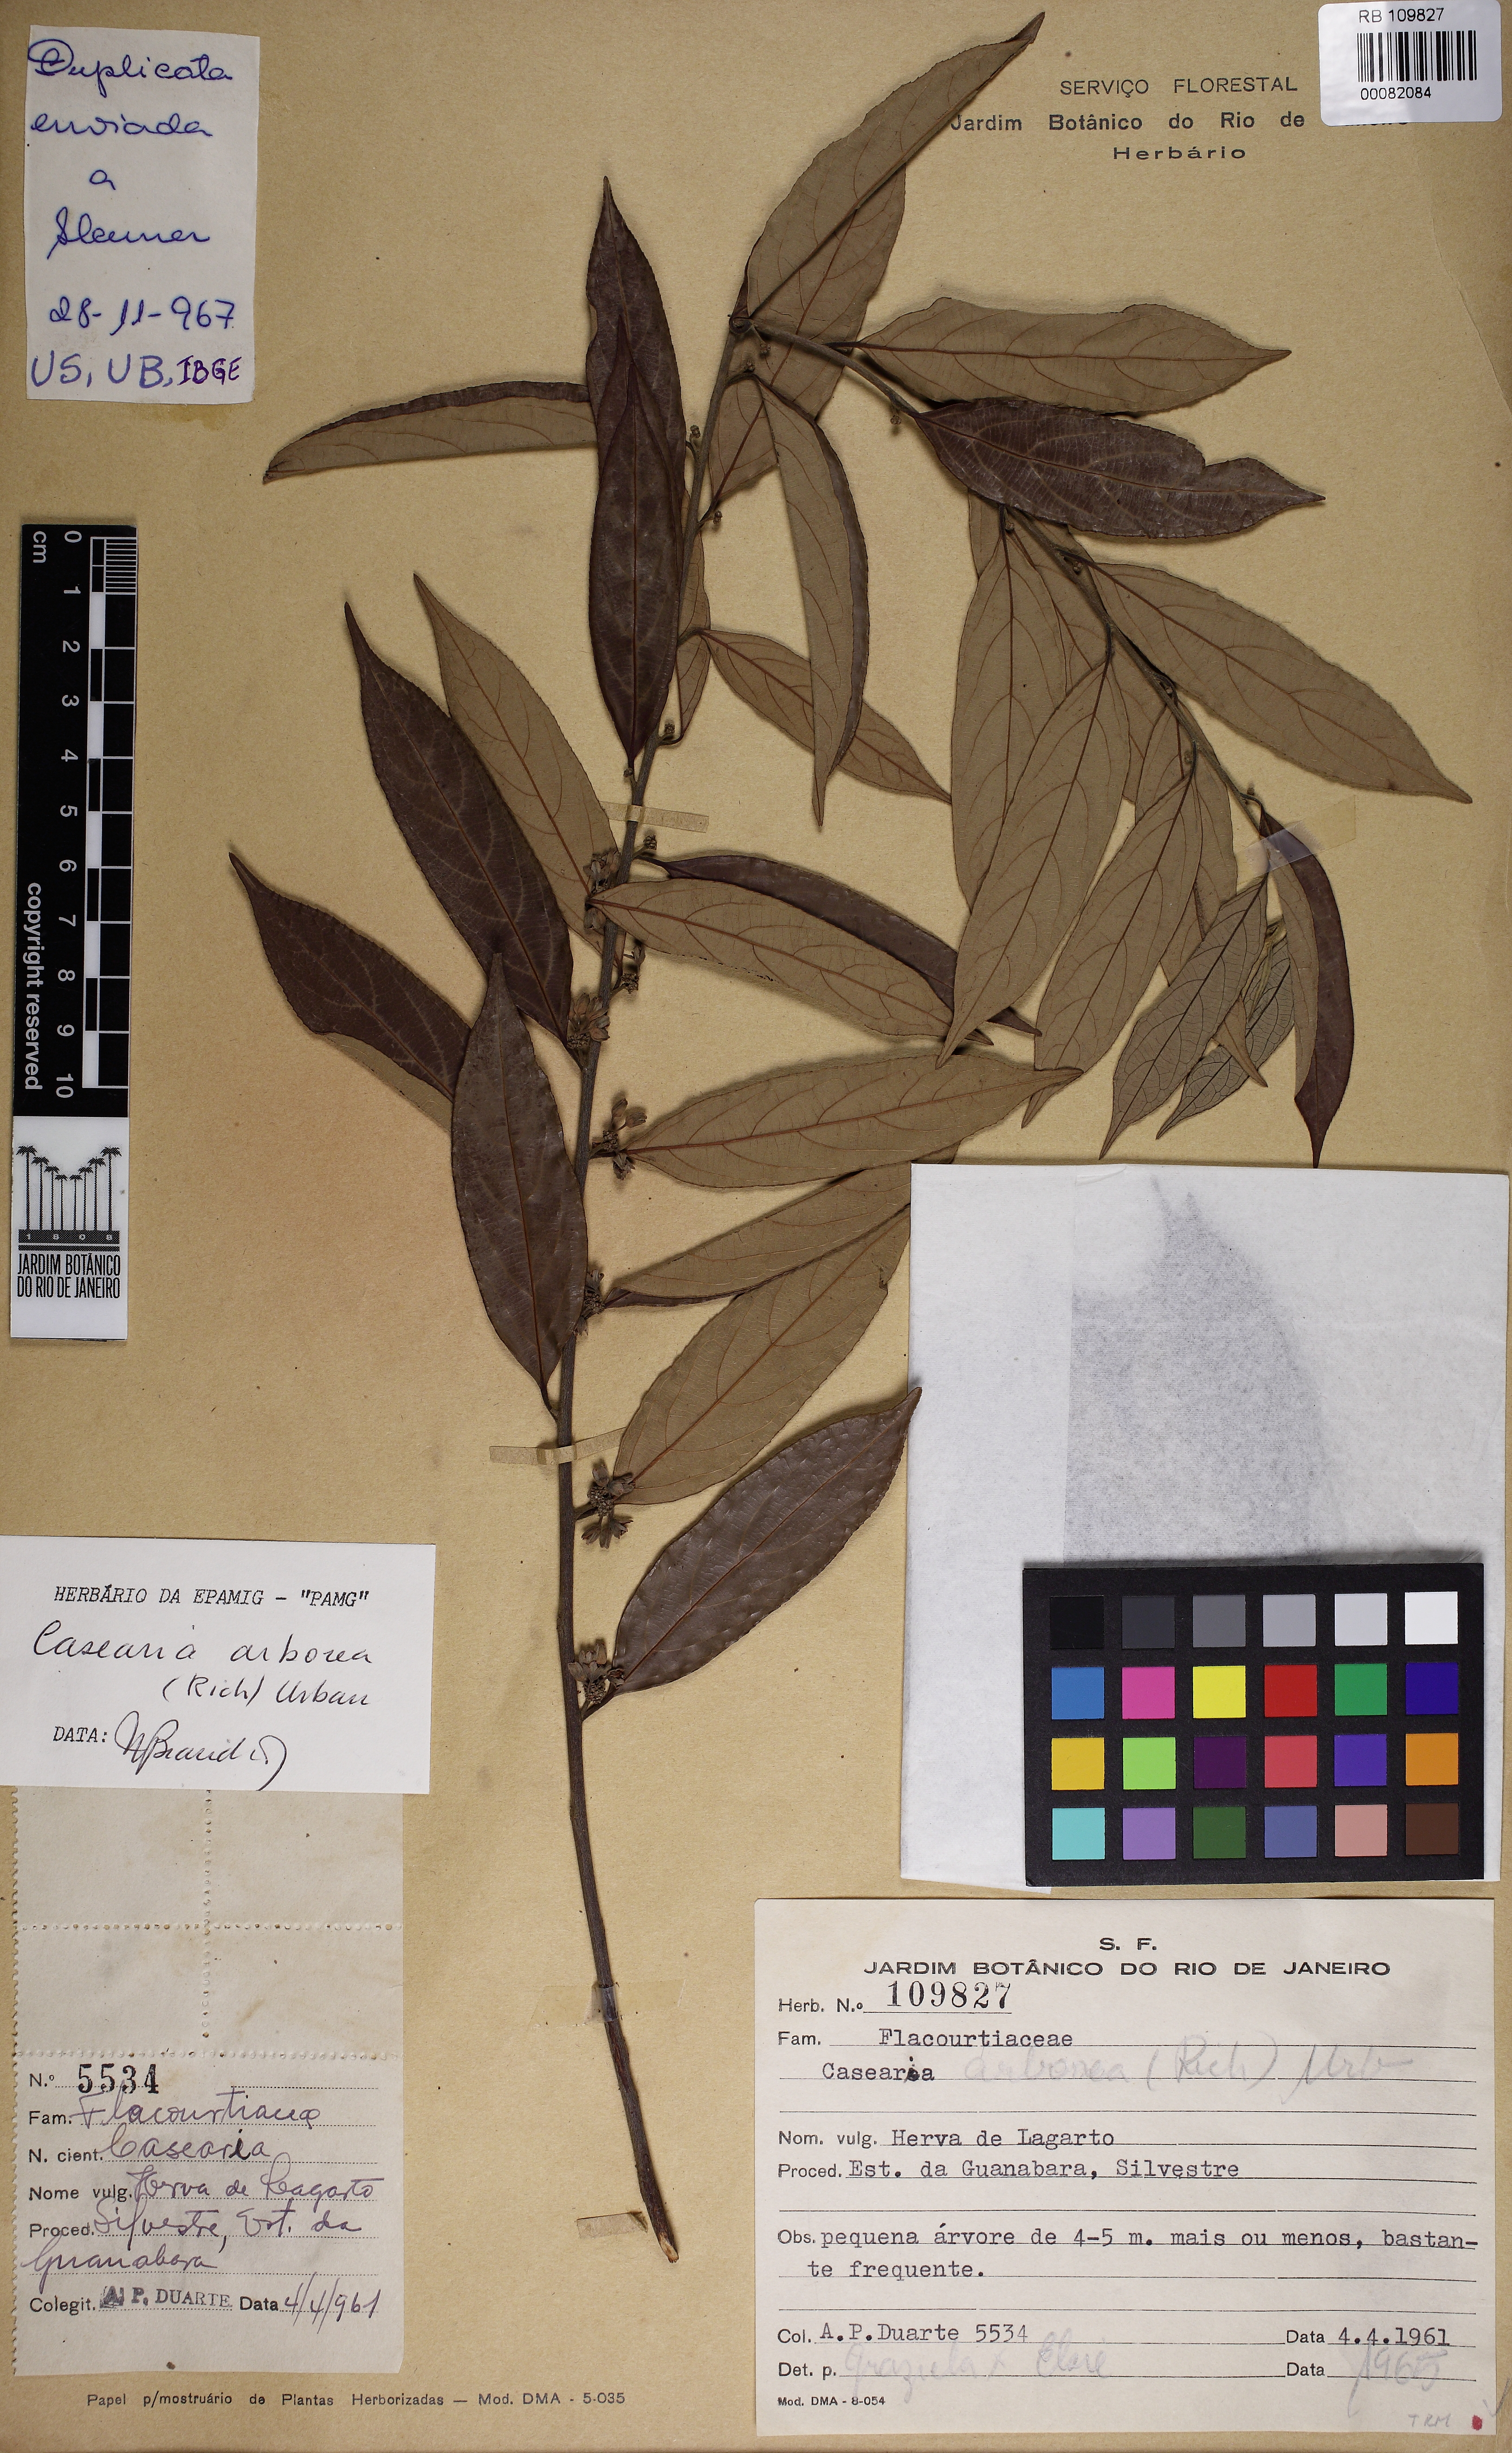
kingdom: Plantae
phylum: Tracheophyta
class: Magnoliopsida
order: Malpighiales
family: Salicaceae
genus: Casearia
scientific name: Casearia
